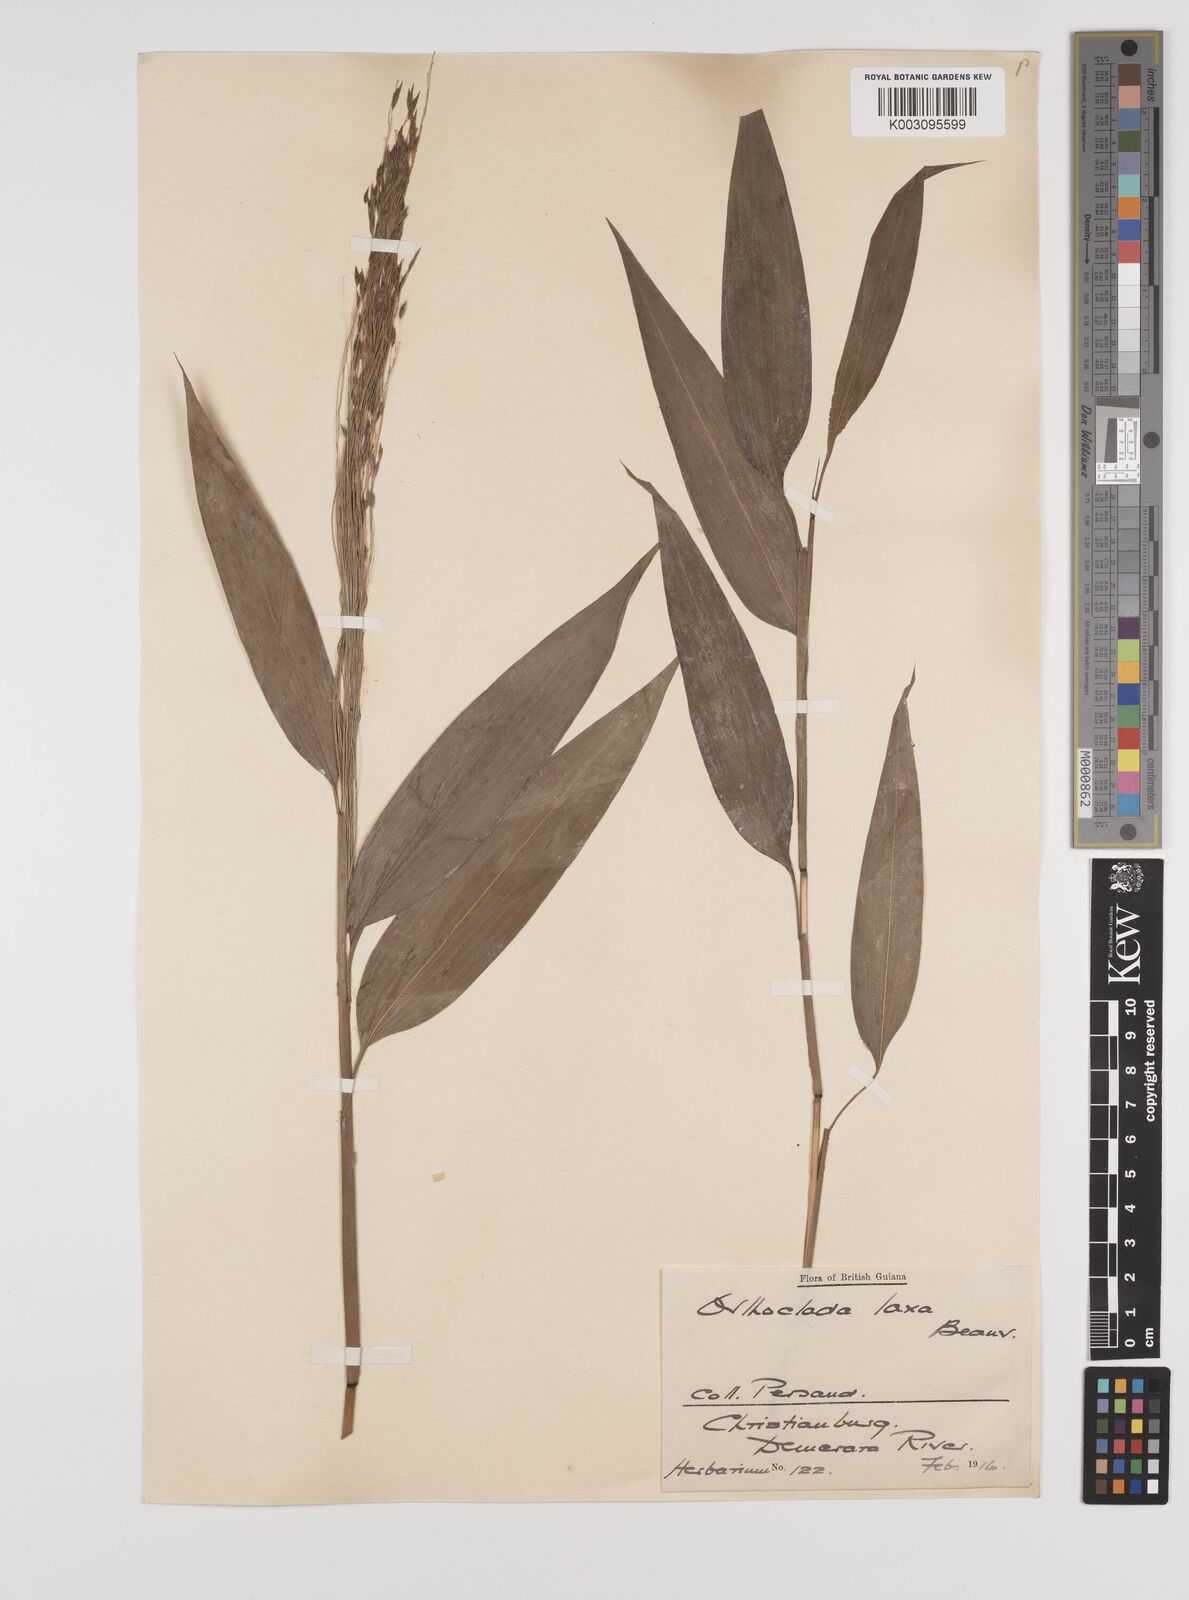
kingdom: Plantae
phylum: Tracheophyta
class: Liliopsida
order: Poales
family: Poaceae
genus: Orthoclada
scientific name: Orthoclada laxa
